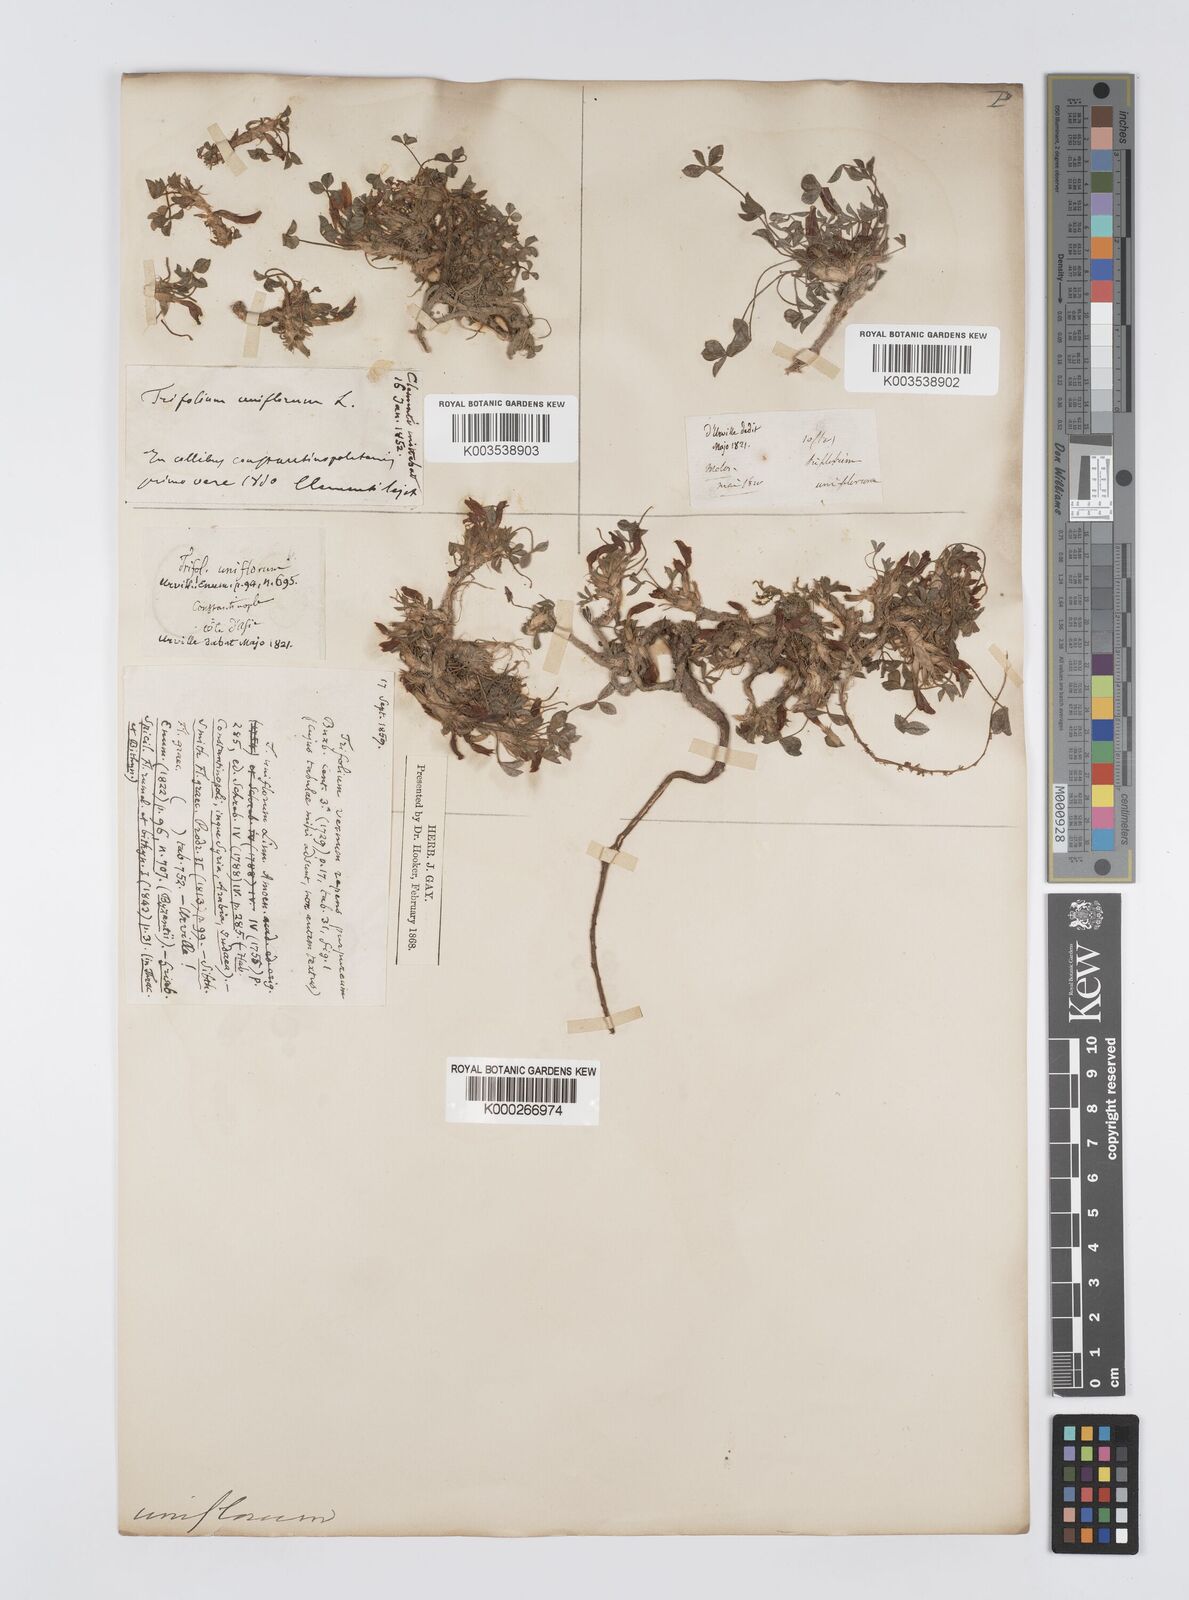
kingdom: Plantae
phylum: Tracheophyta
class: Magnoliopsida
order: Fabales
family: Fabaceae
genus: Trifolium
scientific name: Trifolium uniflorum
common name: One-flower clover
